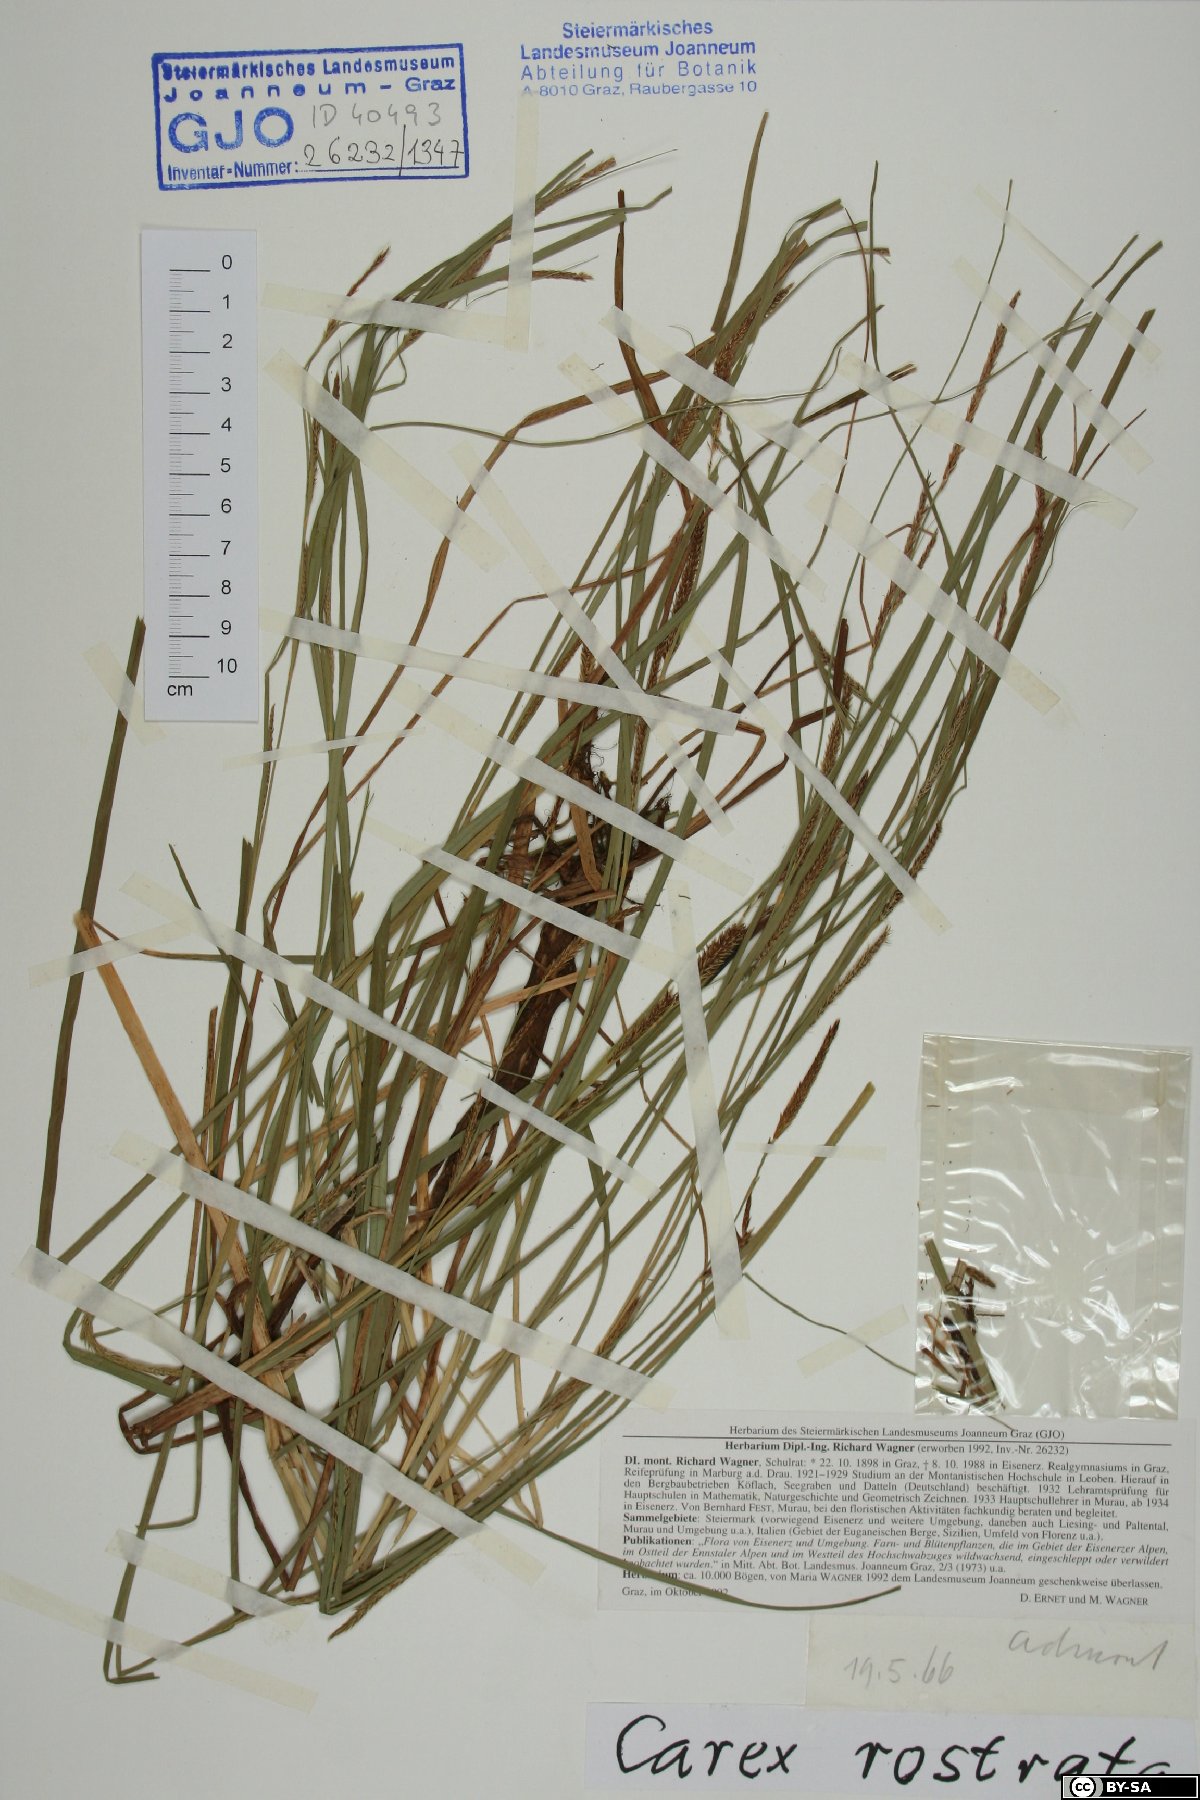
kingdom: Plantae
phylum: Tracheophyta
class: Liliopsida
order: Poales
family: Cyperaceae
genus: Carex
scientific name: Carex rostrata
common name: Bottle sedge
